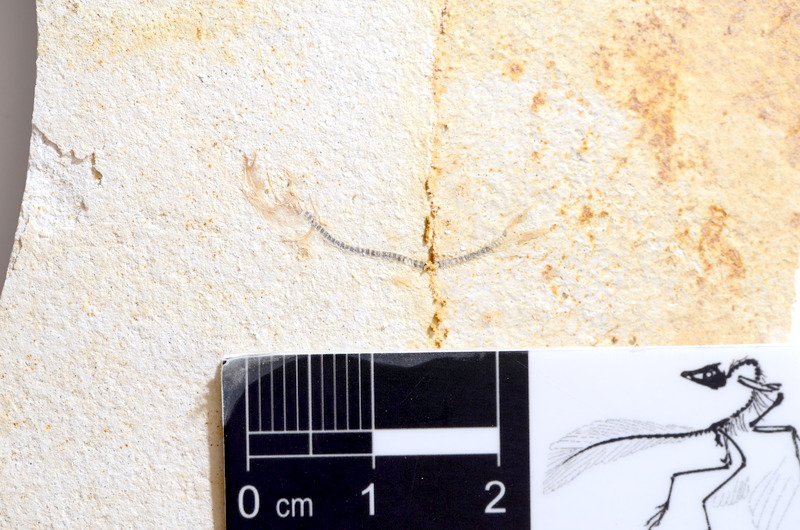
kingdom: Animalia
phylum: Chordata
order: Salmoniformes
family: Orthogonikleithridae
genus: Orthogonikleithrus
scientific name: Orthogonikleithrus hoelli
